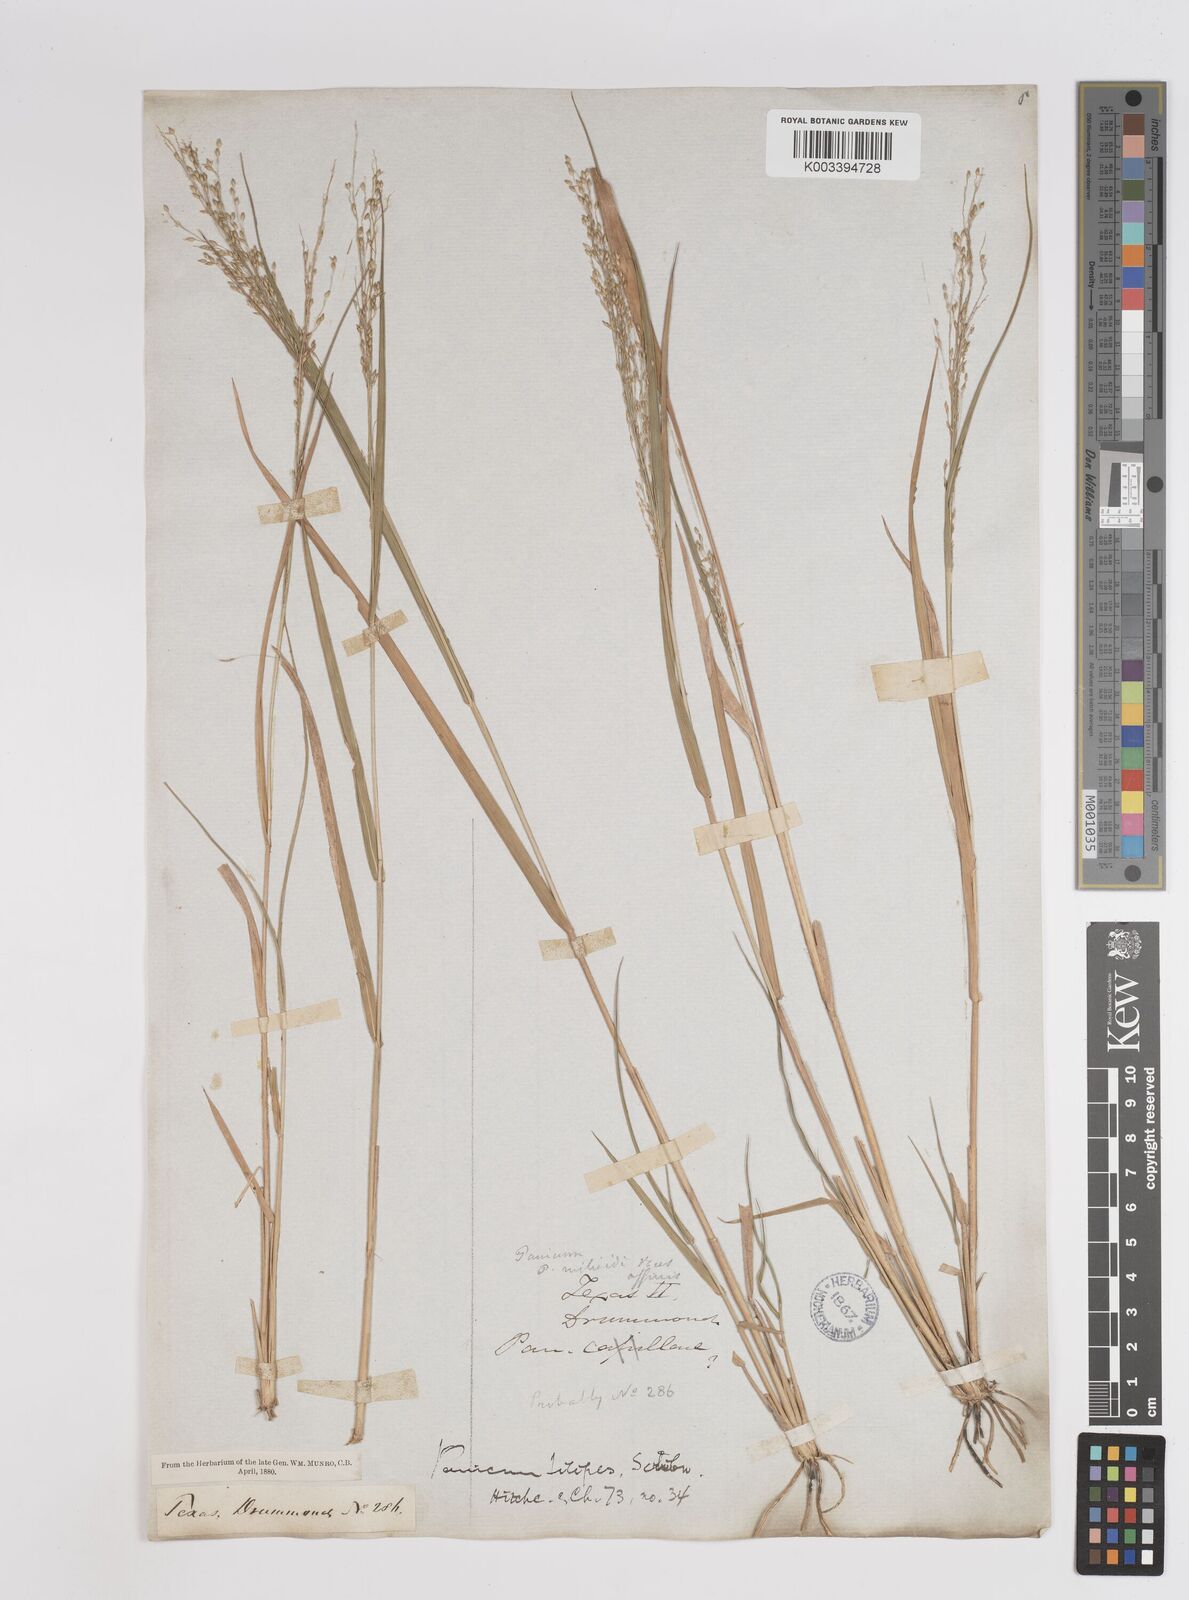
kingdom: Plantae
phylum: Tracheophyta
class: Liliopsida
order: Poales
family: Poaceae
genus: Panicum
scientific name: Panicum hallii
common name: Hall's witchgrass
